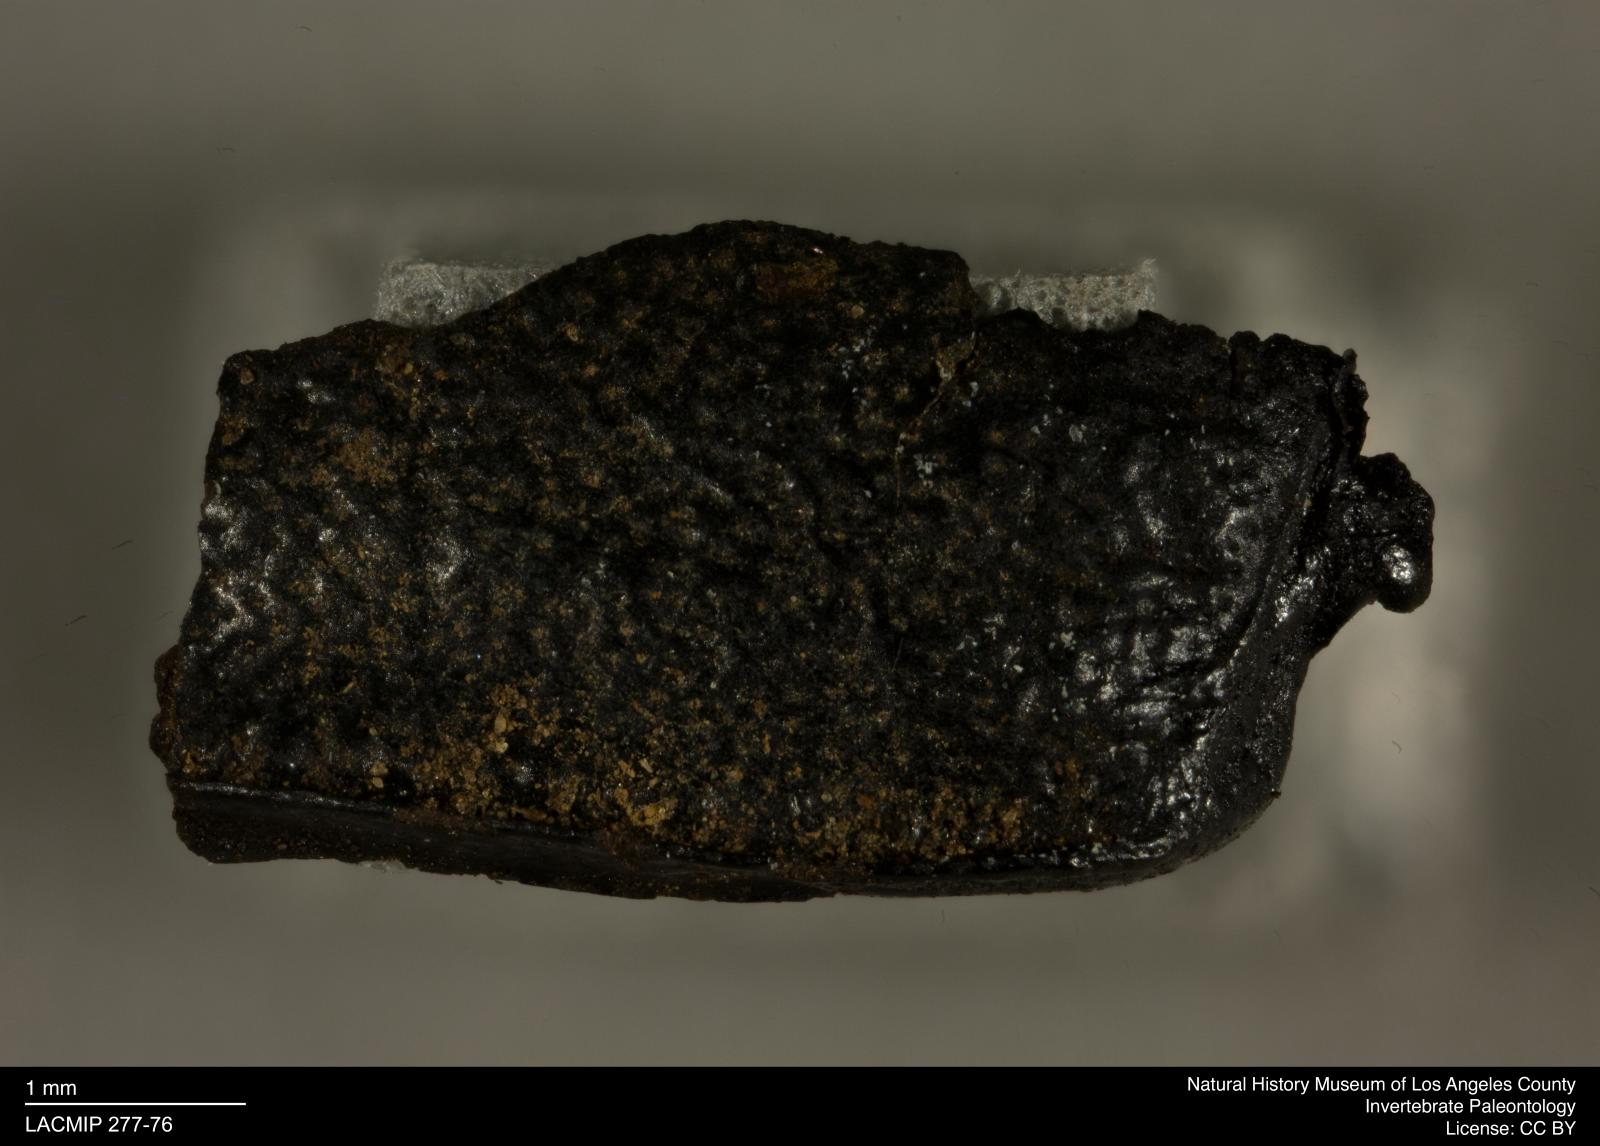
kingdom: Animalia
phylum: Arthropoda
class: Insecta
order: Coleoptera
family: Tenebrionidae
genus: Coniontis
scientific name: Coniontis abdominalis
